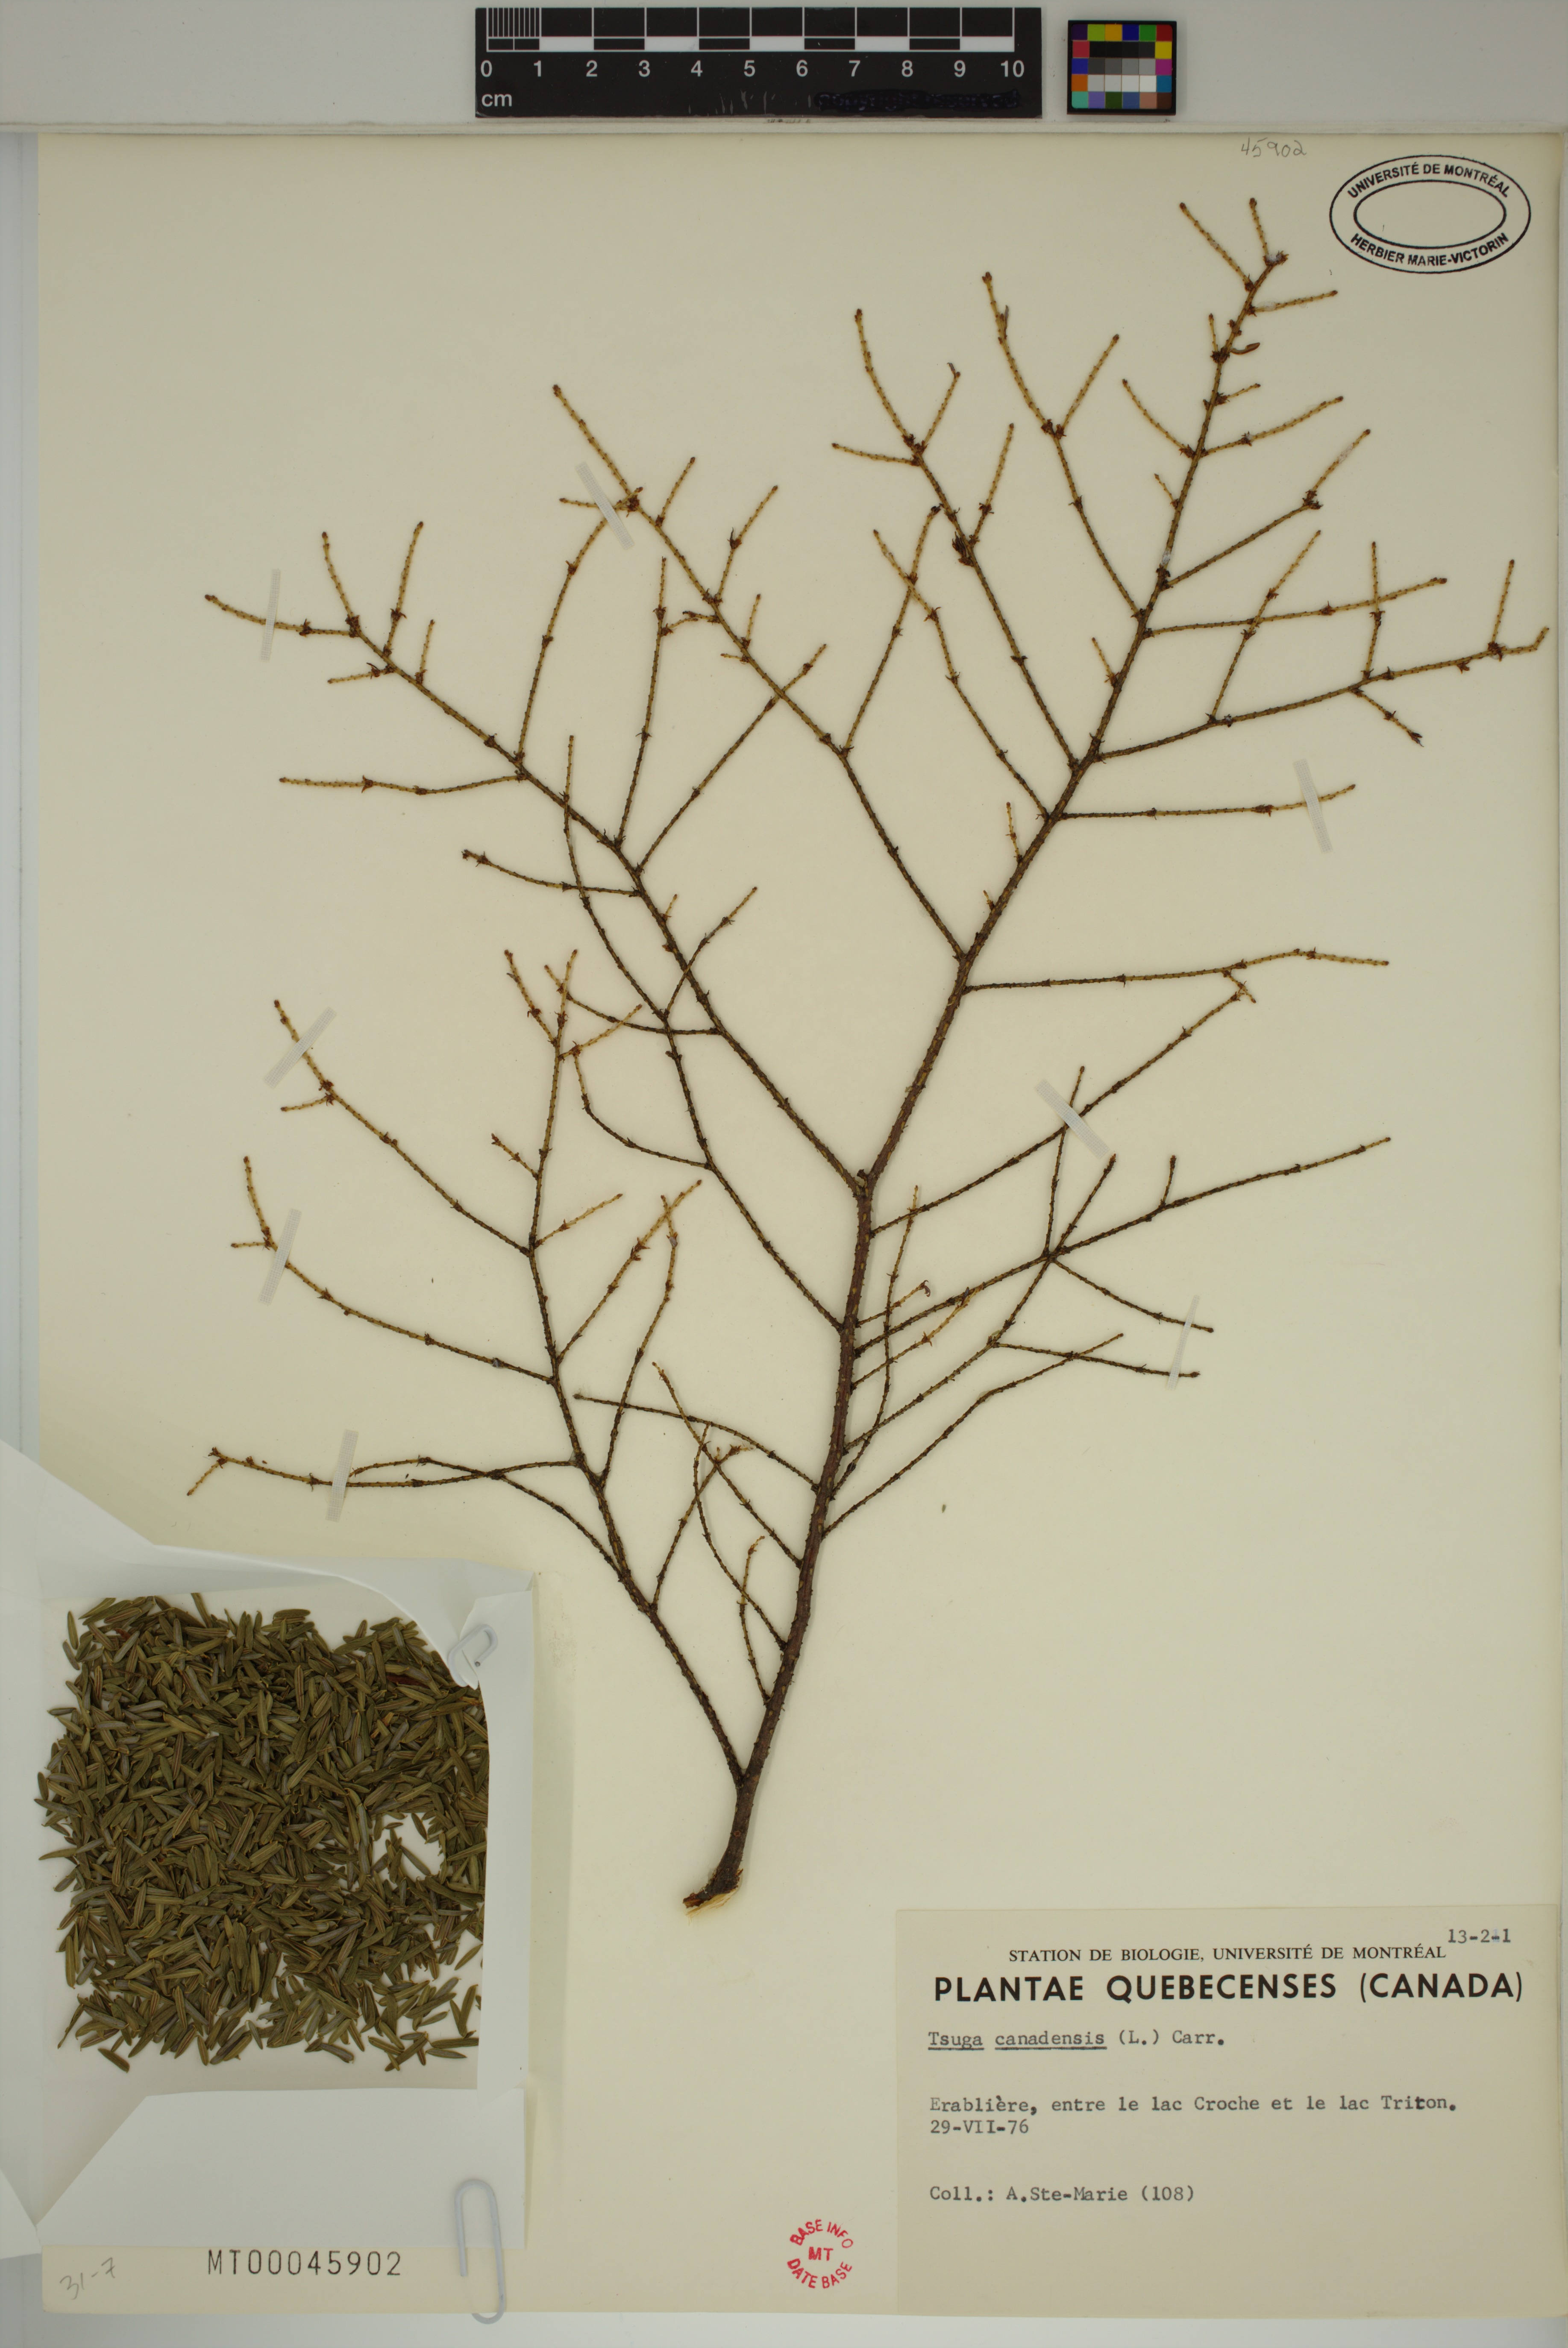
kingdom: Plantae
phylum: Tracheophyta
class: Pinopsida
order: Pinales
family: Pinaceae
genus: Tsuga
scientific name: Tsuga canadensis
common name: Eastern hemlock
